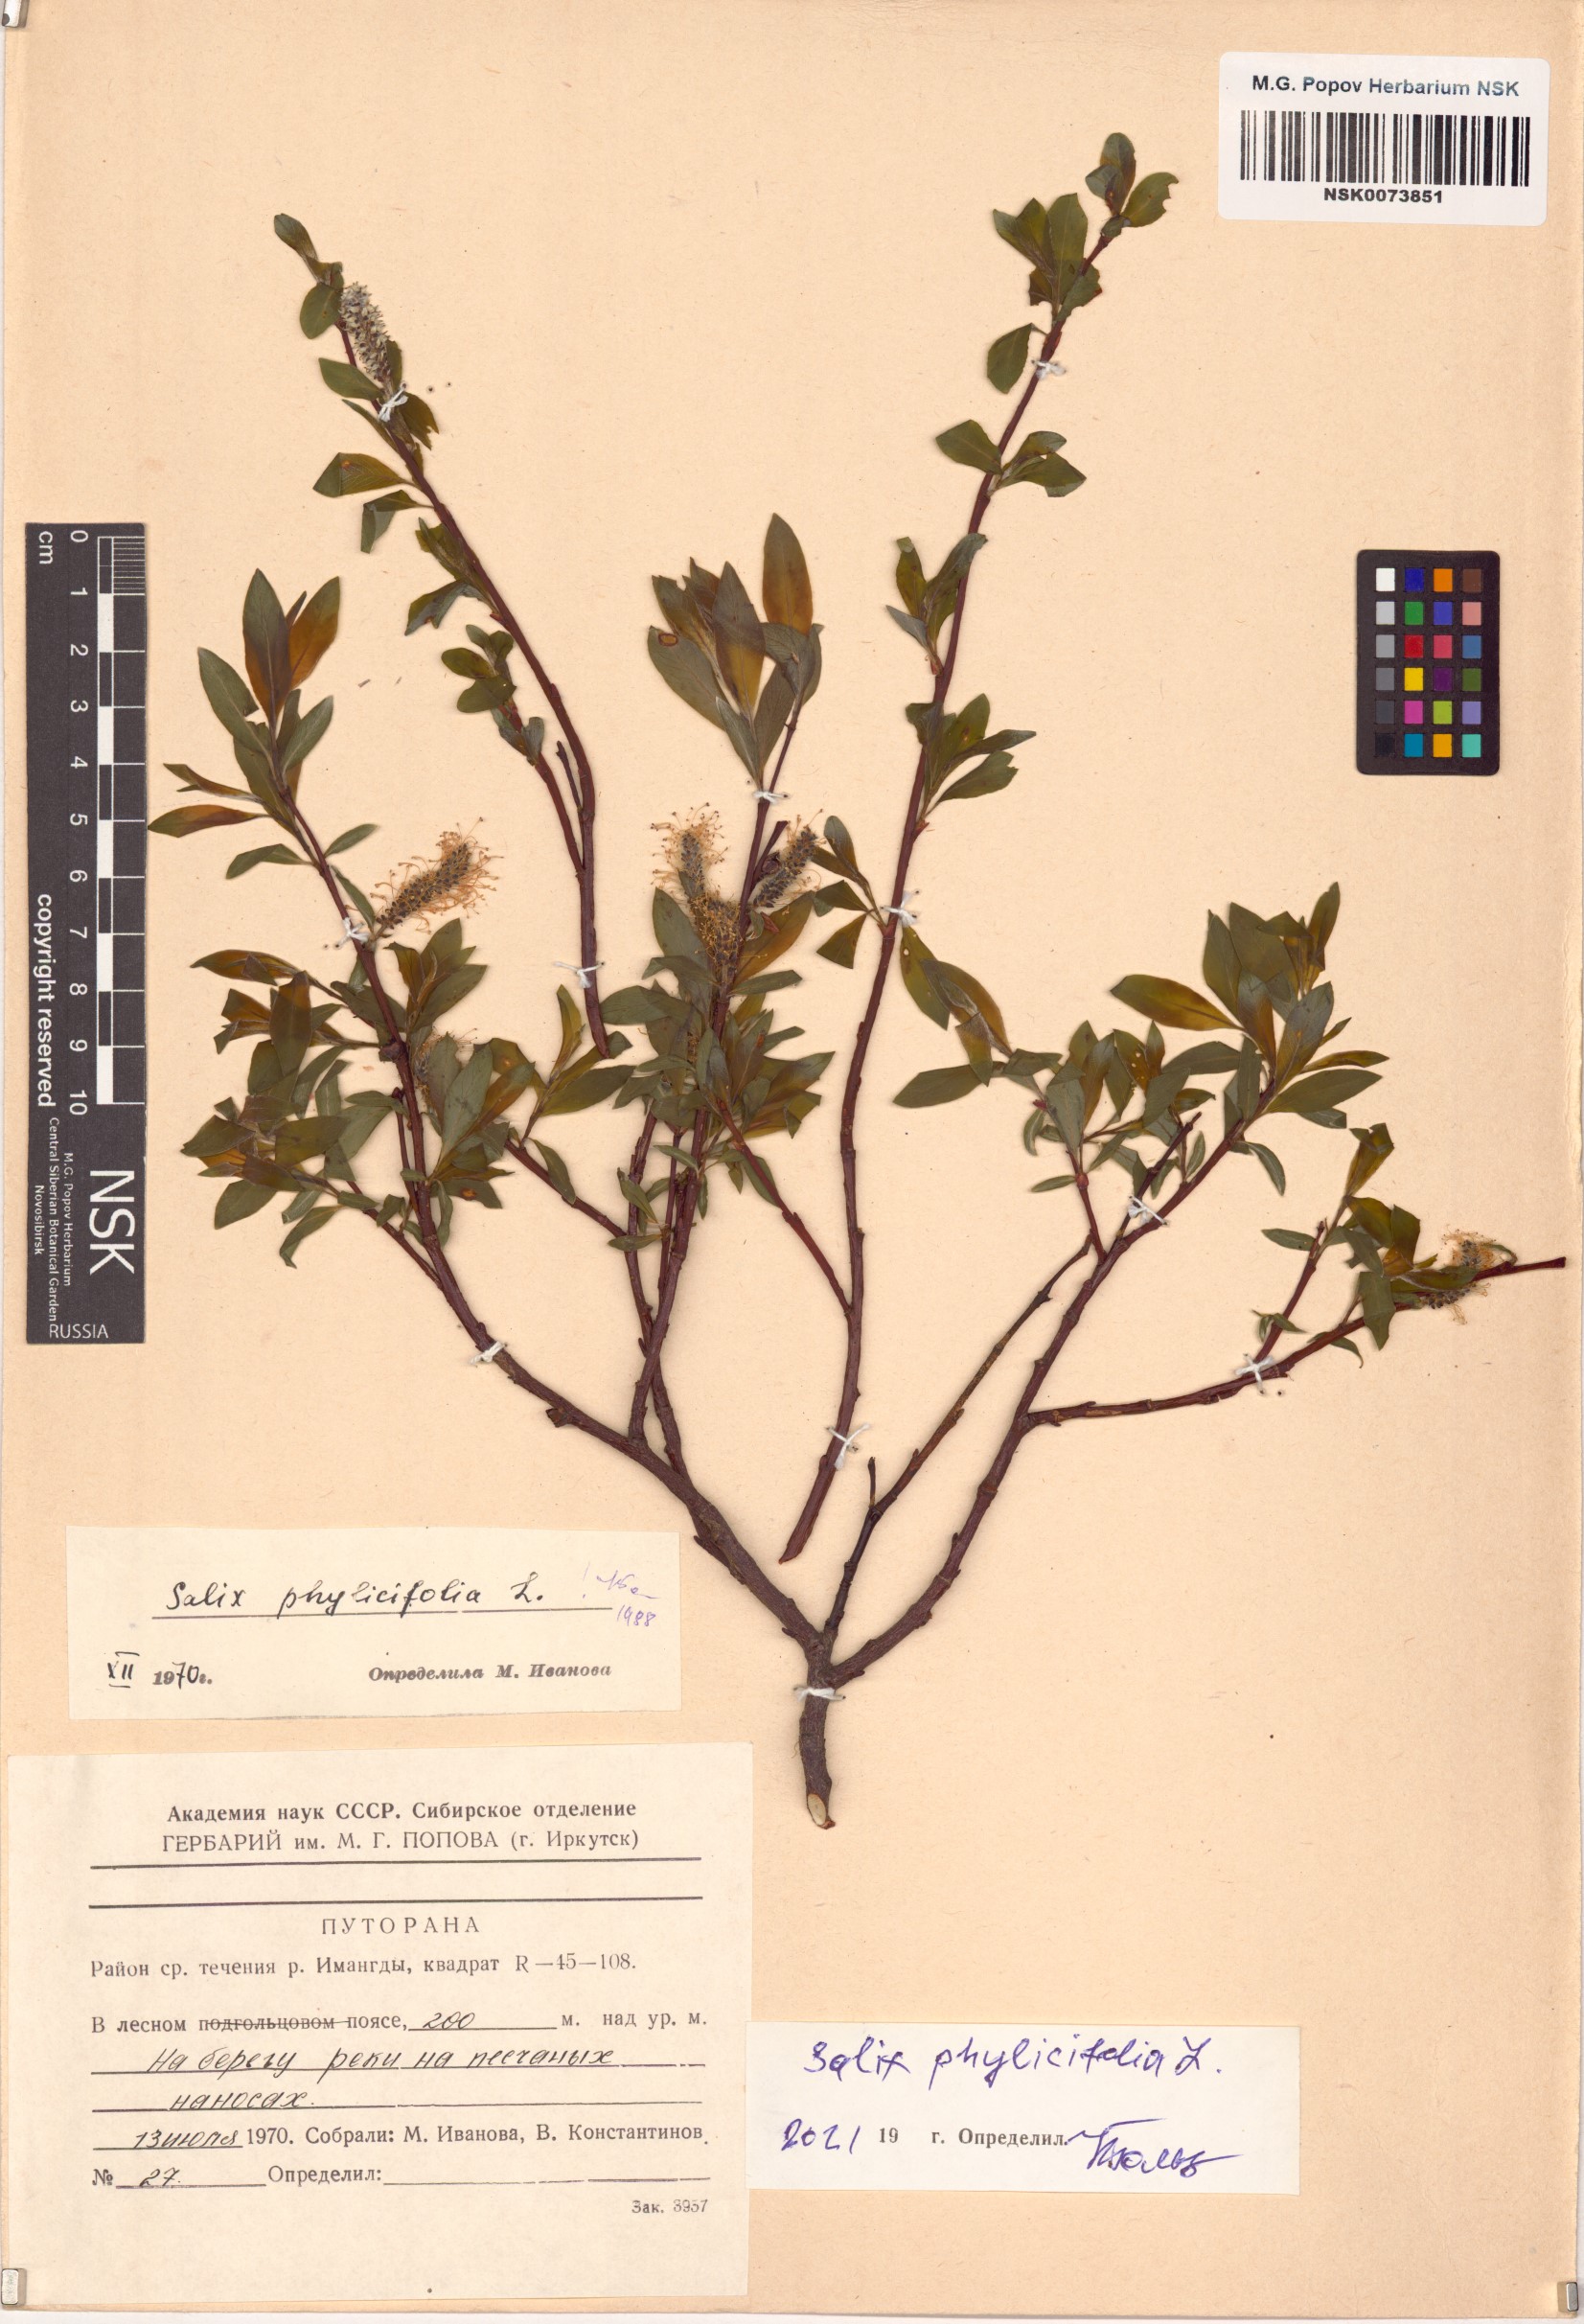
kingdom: Plantae
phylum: Tracheophyta
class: Magnoliopsida
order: Malpighiales
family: Salicaceae
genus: Salix
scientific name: Salix phylicifolia
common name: Tea-leaved willow
